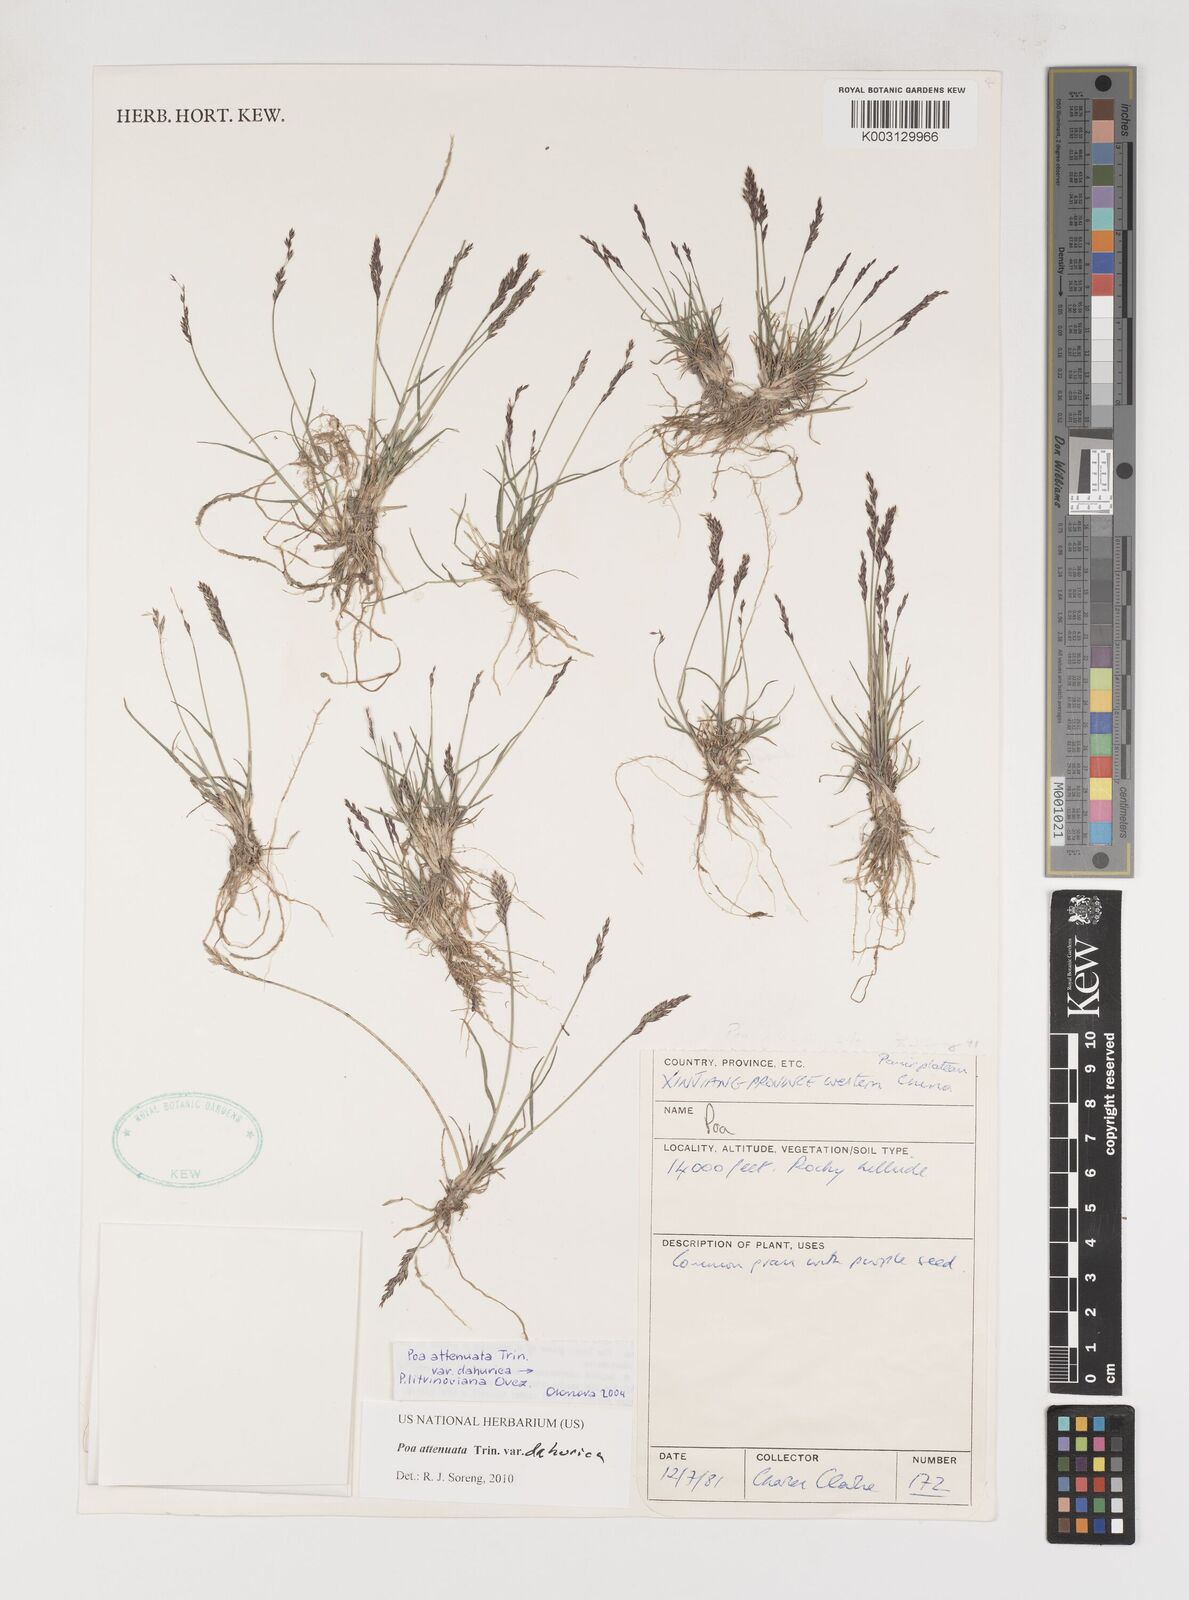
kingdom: Plantae
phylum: Tracheophyta
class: Liliopsida
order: Poales
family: Poaceae
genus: Poa
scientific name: Poa attenuata
